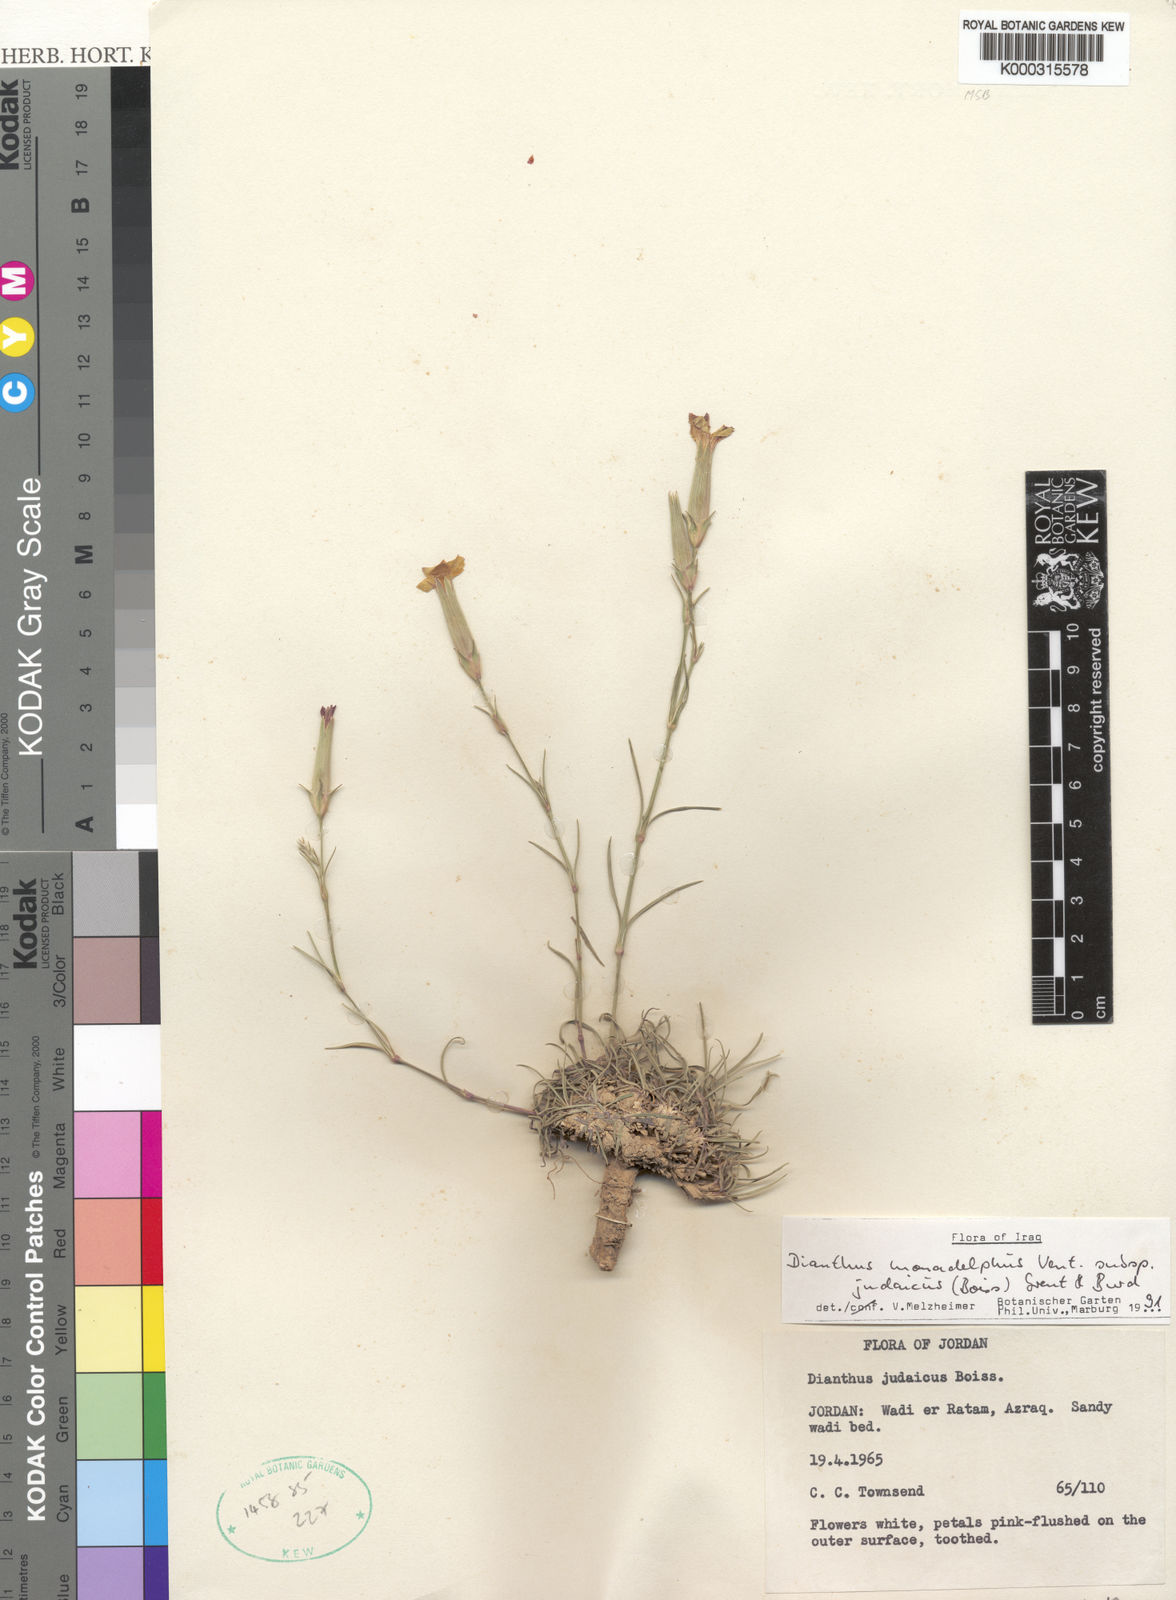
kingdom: Plantae
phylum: Tracheophyta
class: Magnoliopsida
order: Caryophyllales
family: Caryophyllaceae
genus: Dianthus
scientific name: Dianthus monadelphus
